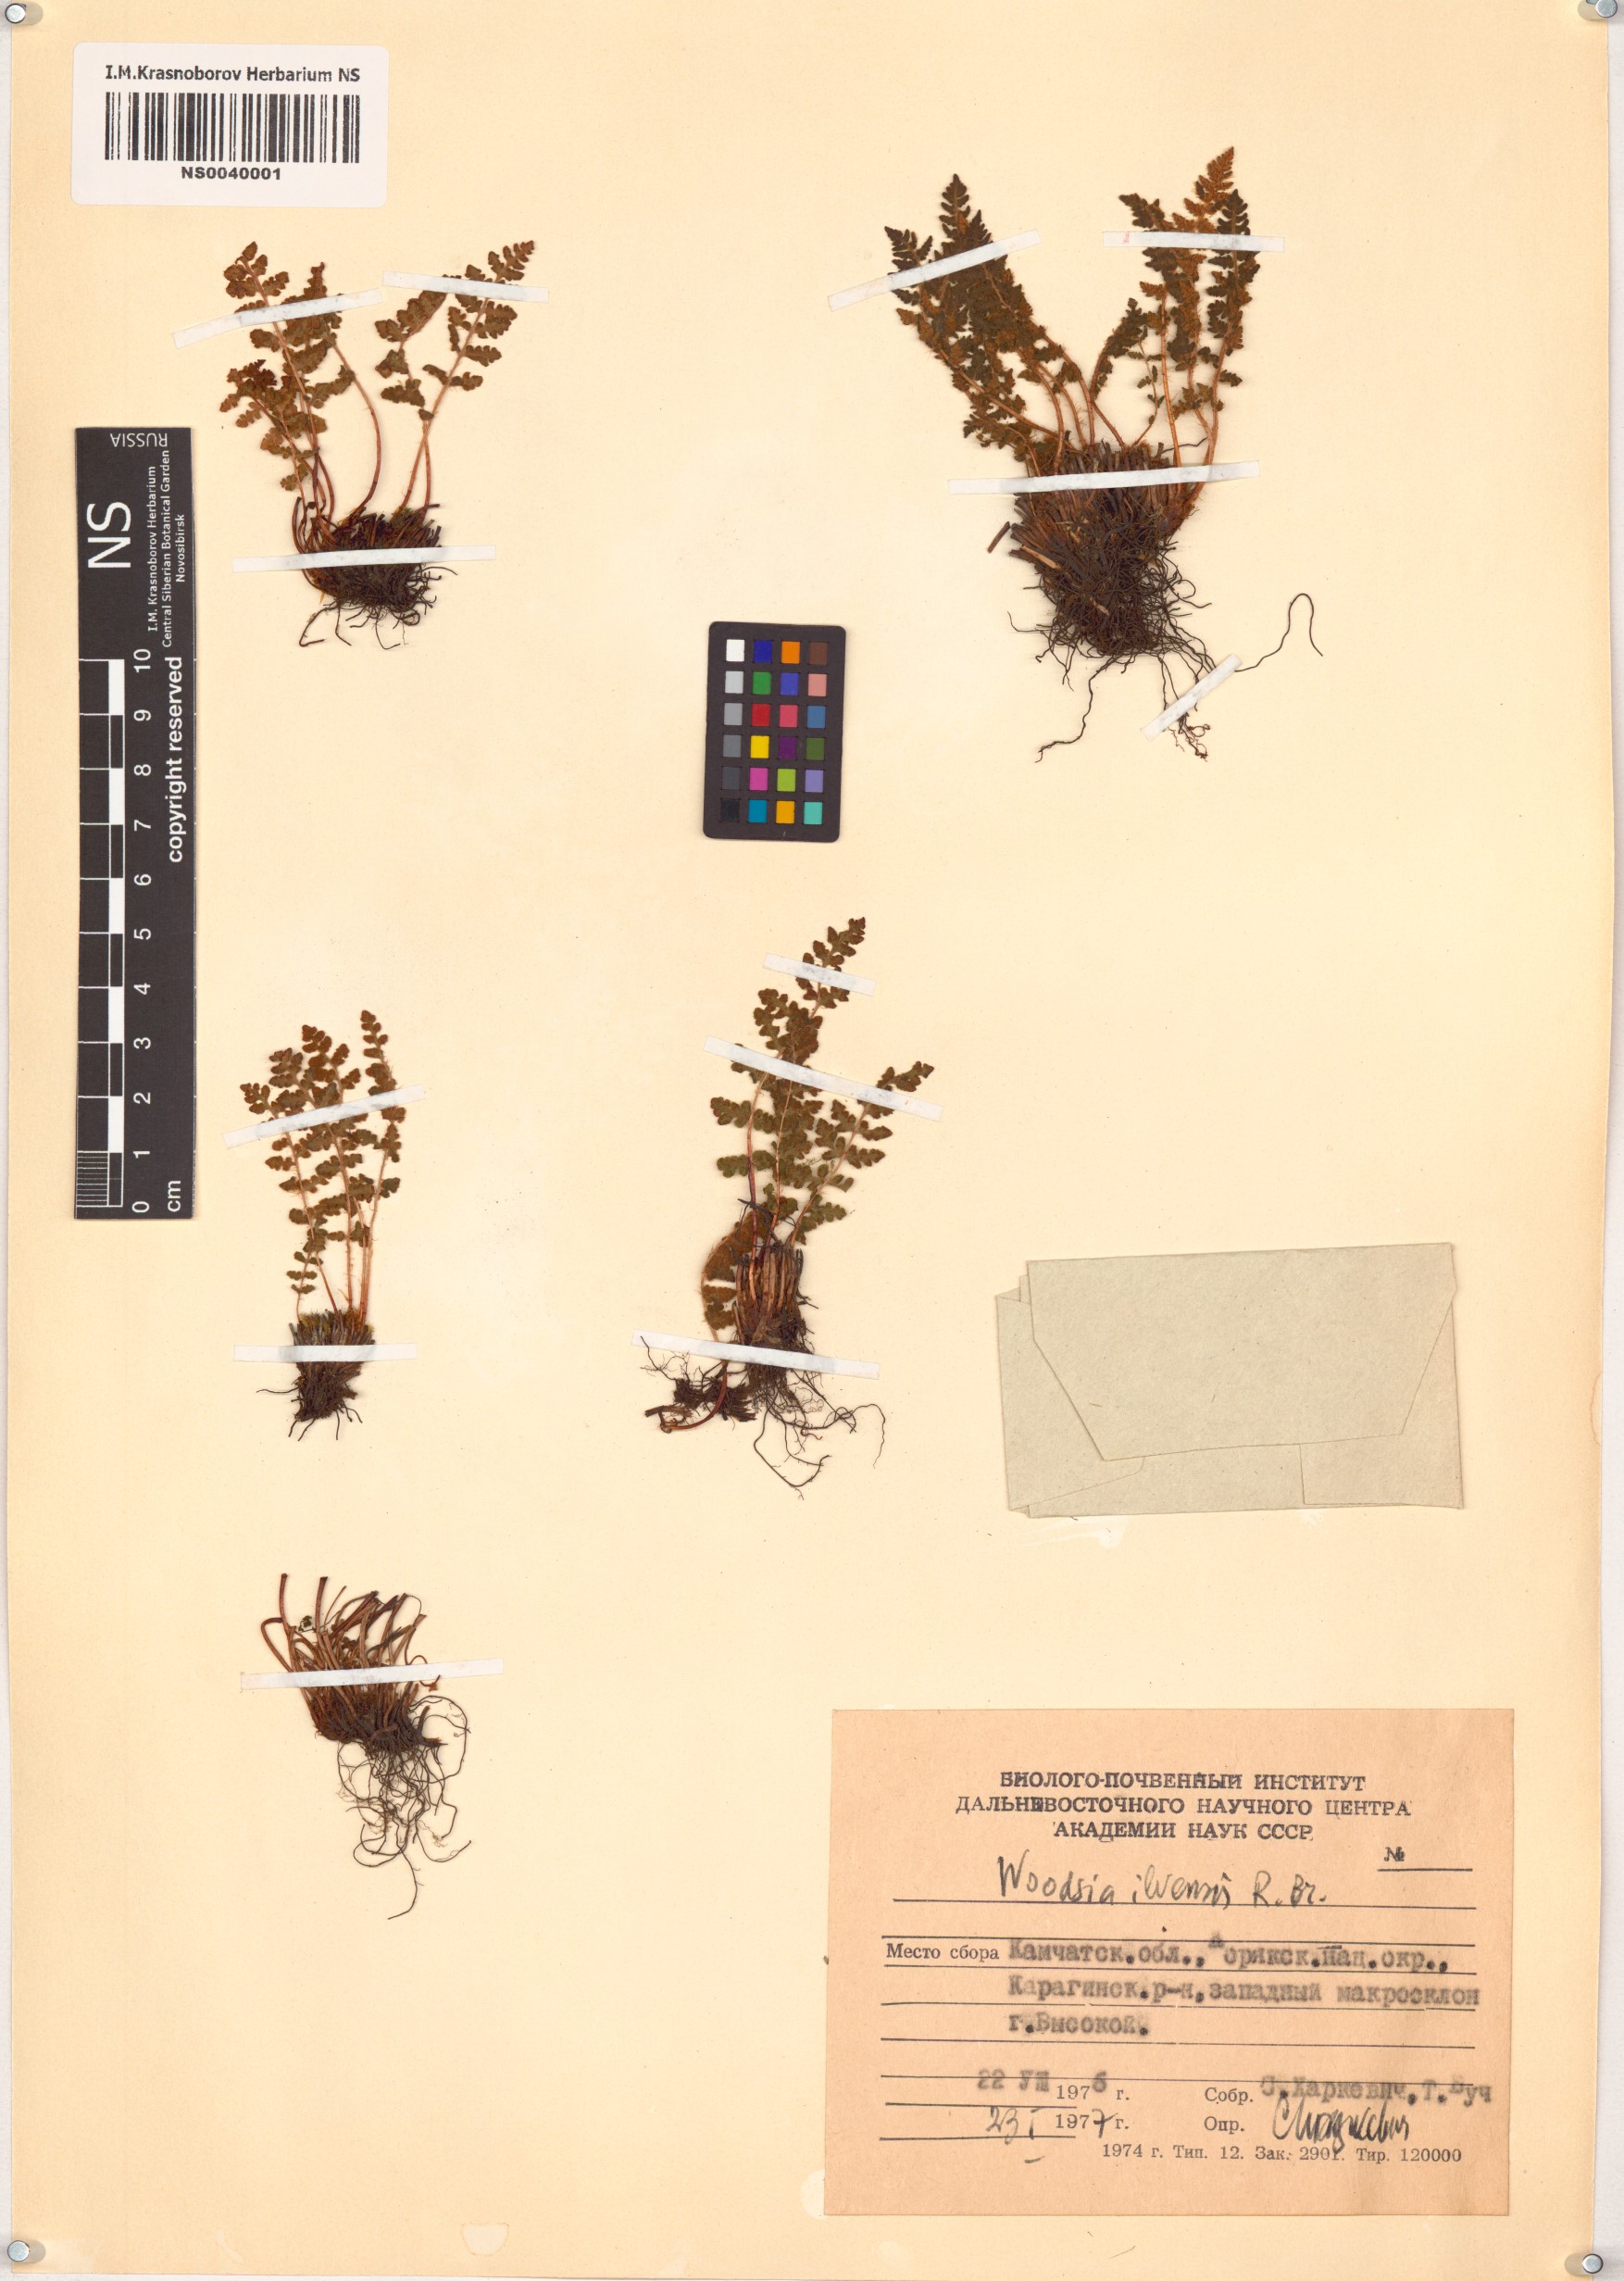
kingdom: Plantae
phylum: Tracheophyta
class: Polypodiopsida
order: Polypodiales
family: Woodsiaceae
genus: Woodsia
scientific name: Woodsia ilvensis
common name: Fragrant woodsia
